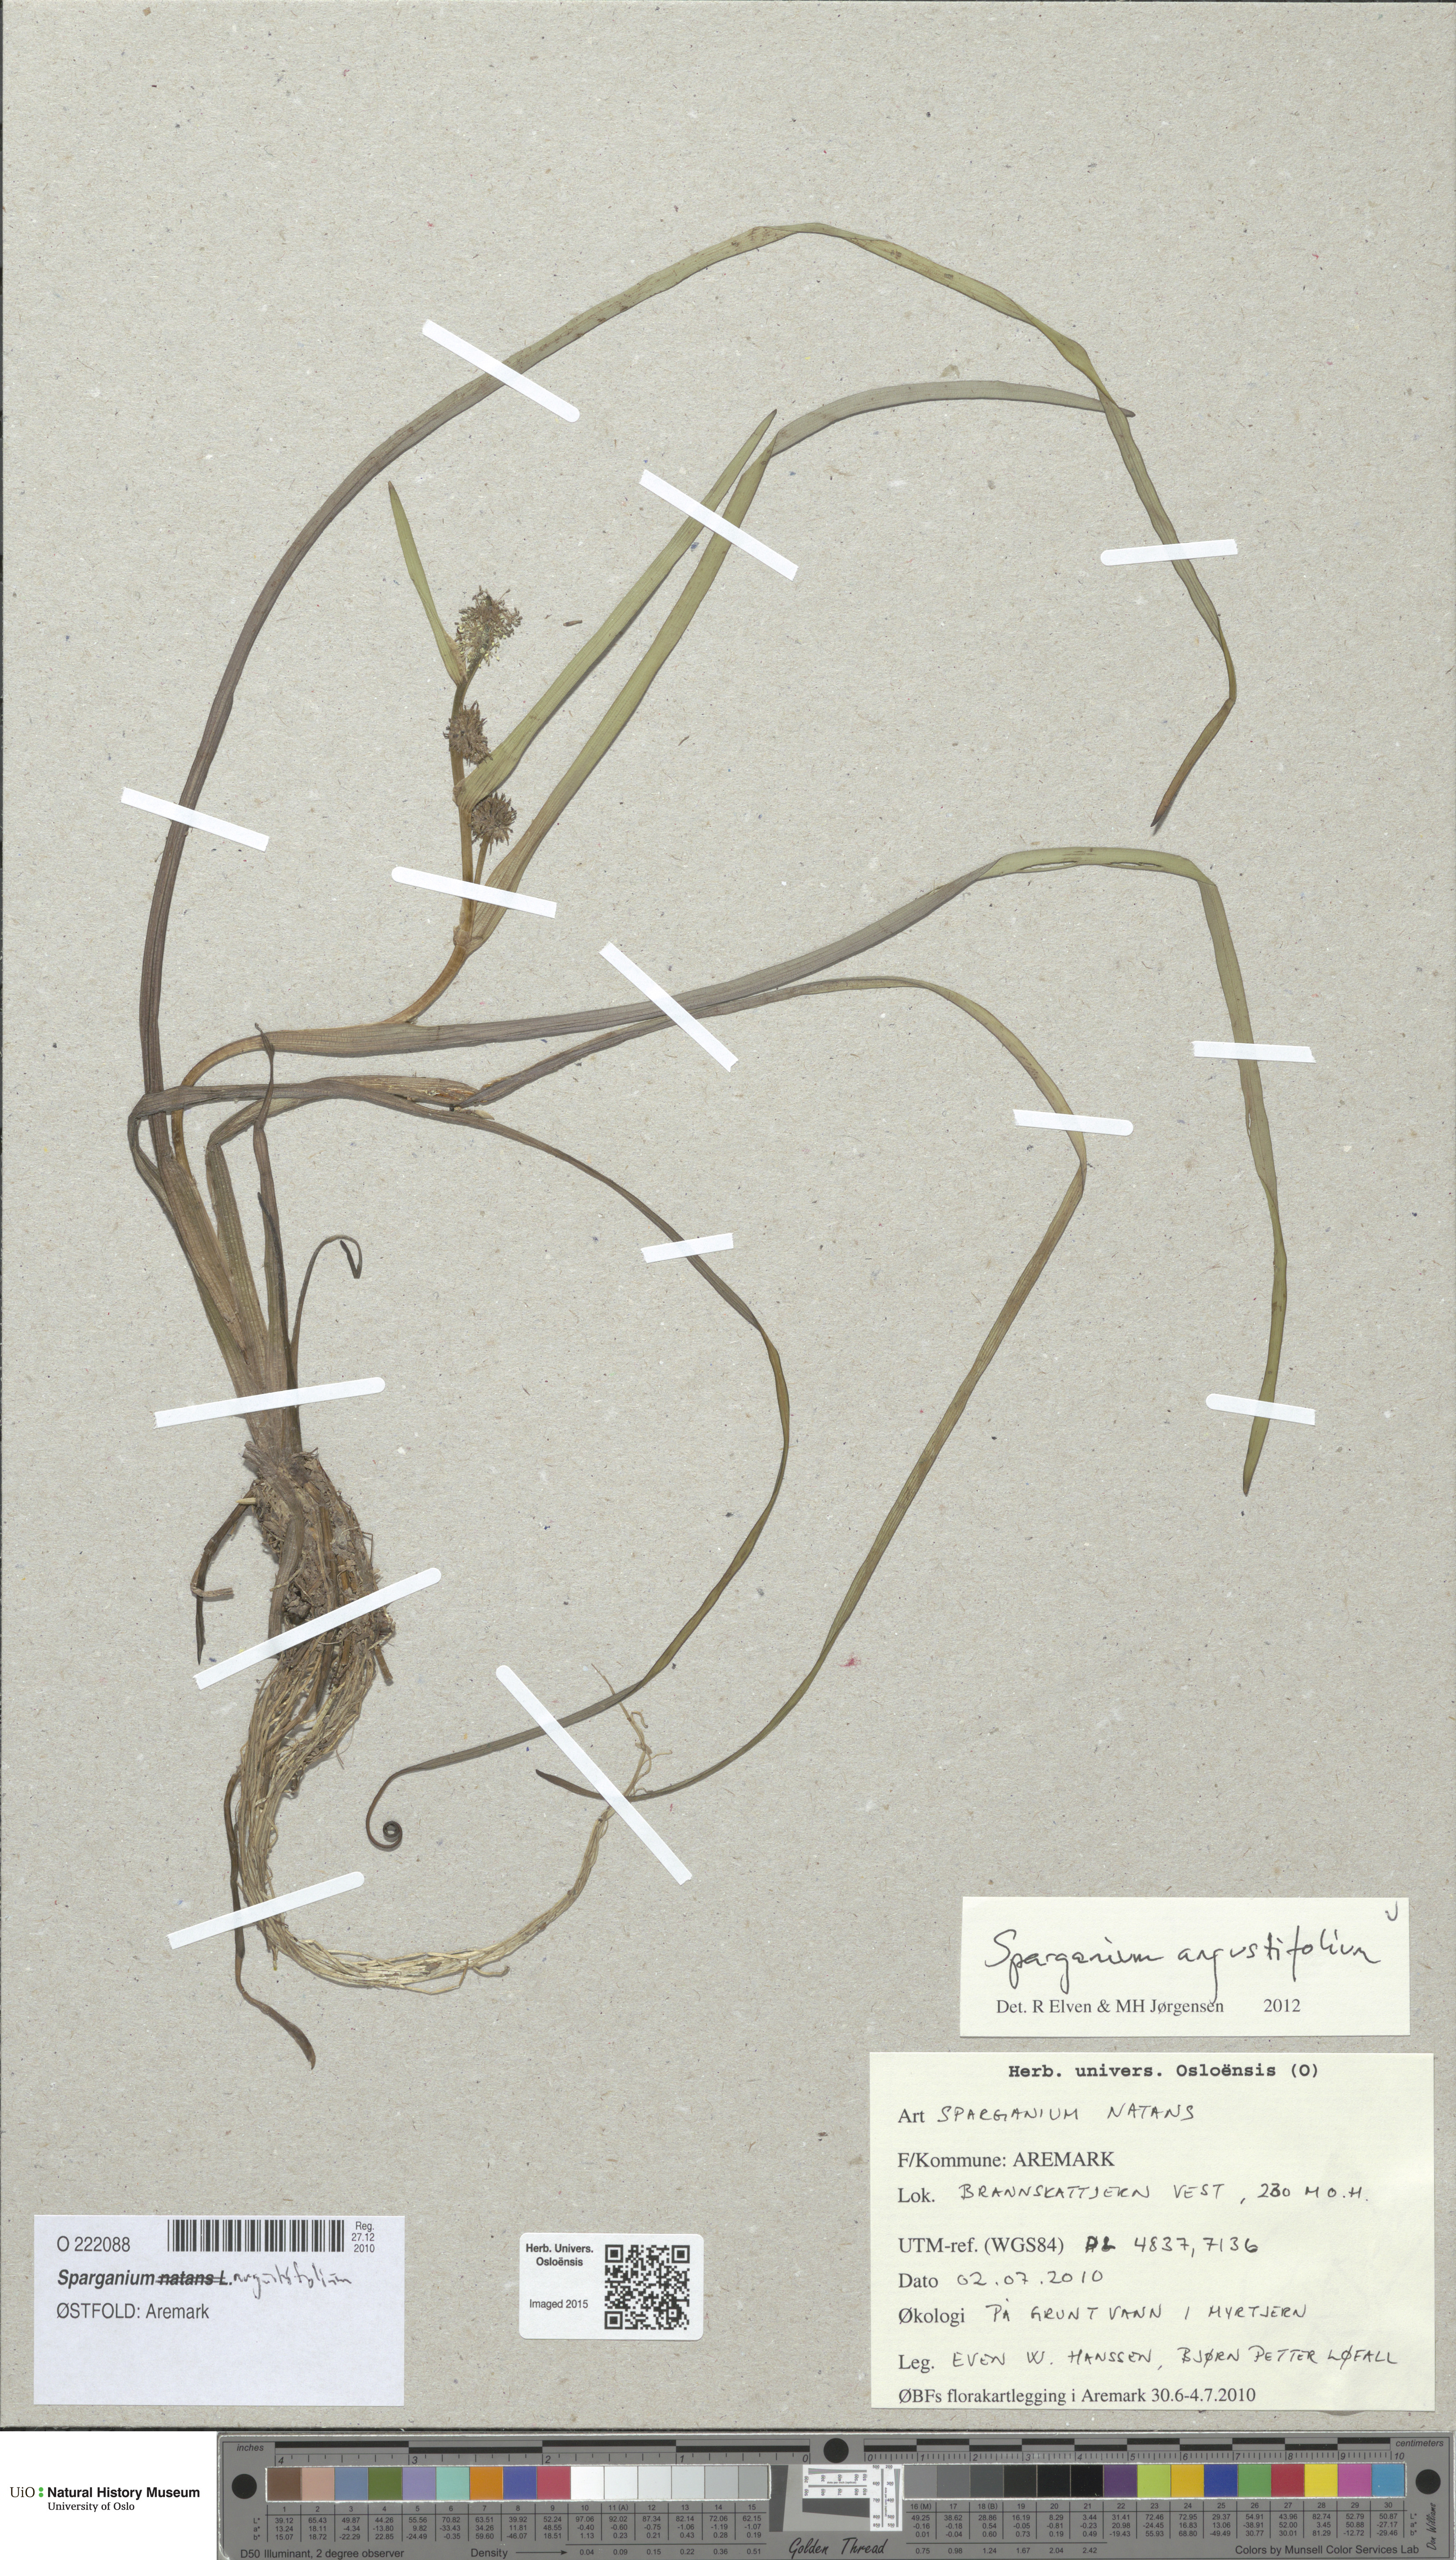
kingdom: Plantae
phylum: Tracheophyta
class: Liliopsida
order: Poales
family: Typhaceae
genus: Sparganium
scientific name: Sparganium angustifolium
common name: Floating bur-reed
